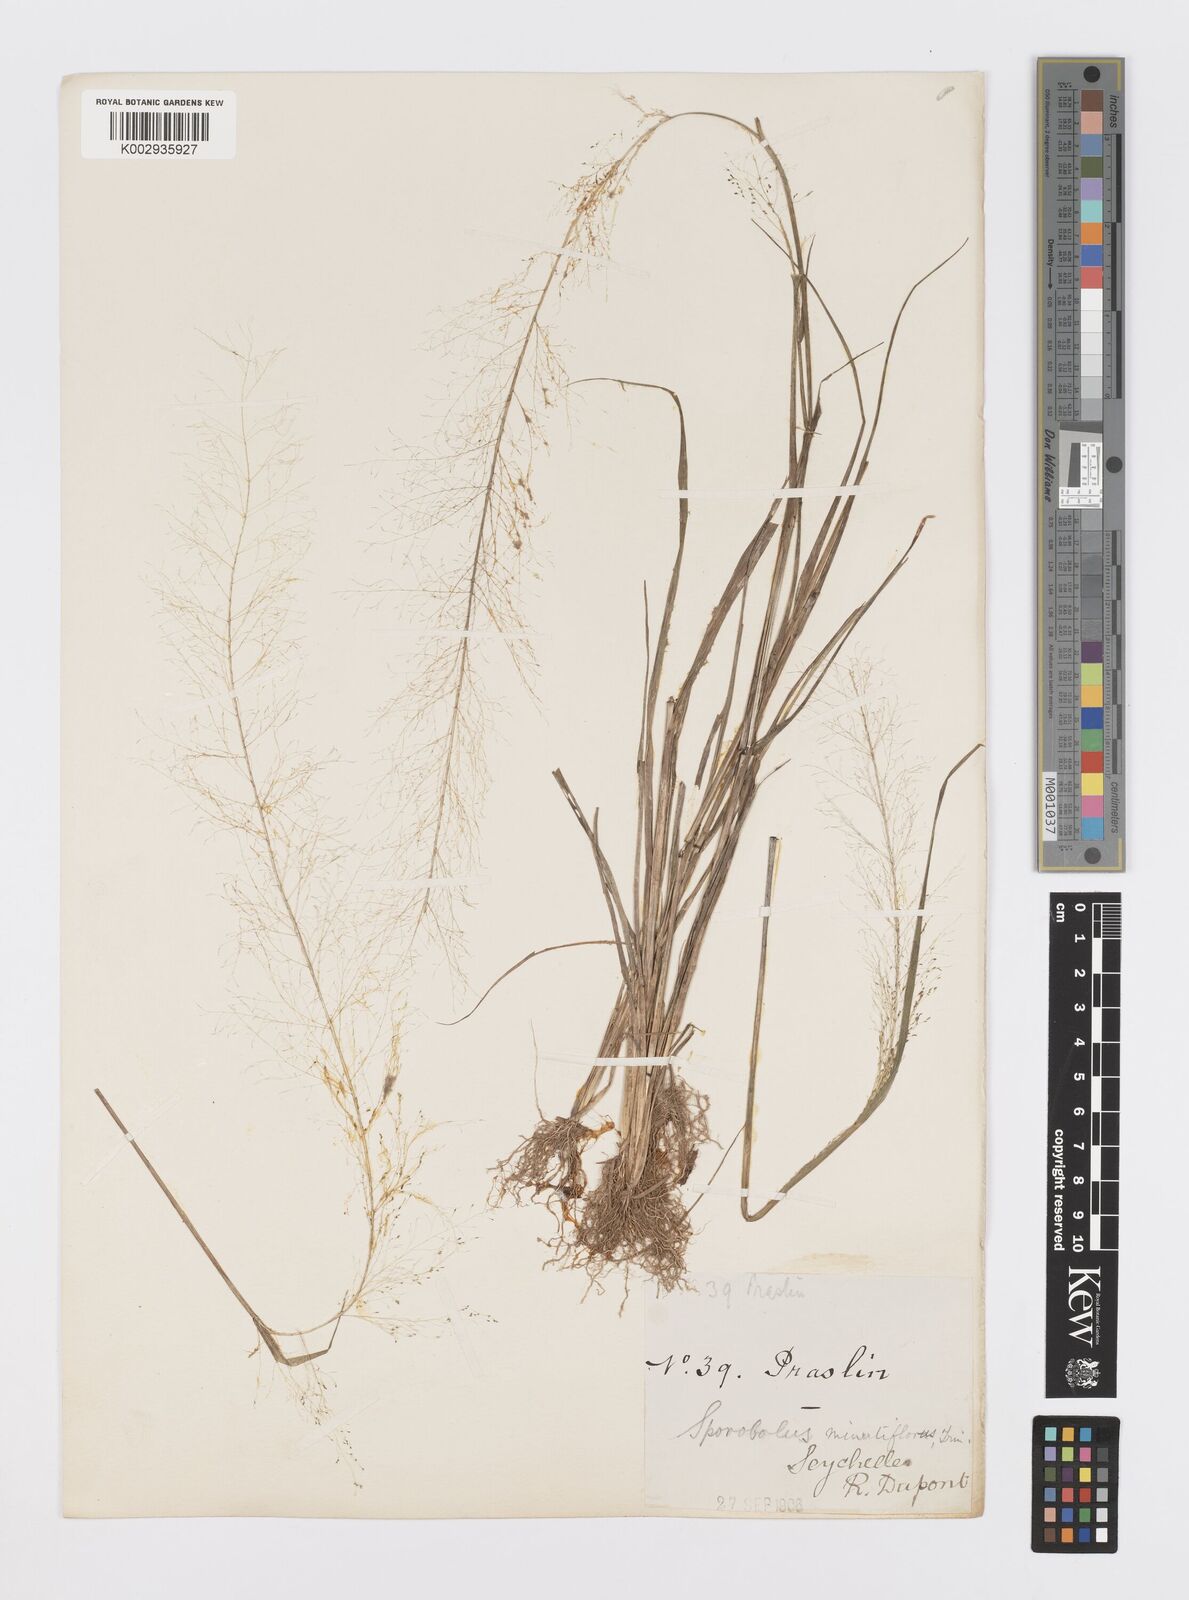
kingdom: Plantae
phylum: Tracheophyta
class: Liliopsida
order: Poales
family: Poaceae
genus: Sporobolus
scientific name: Sporobolus tenuissimus
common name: Tropical dropseed
